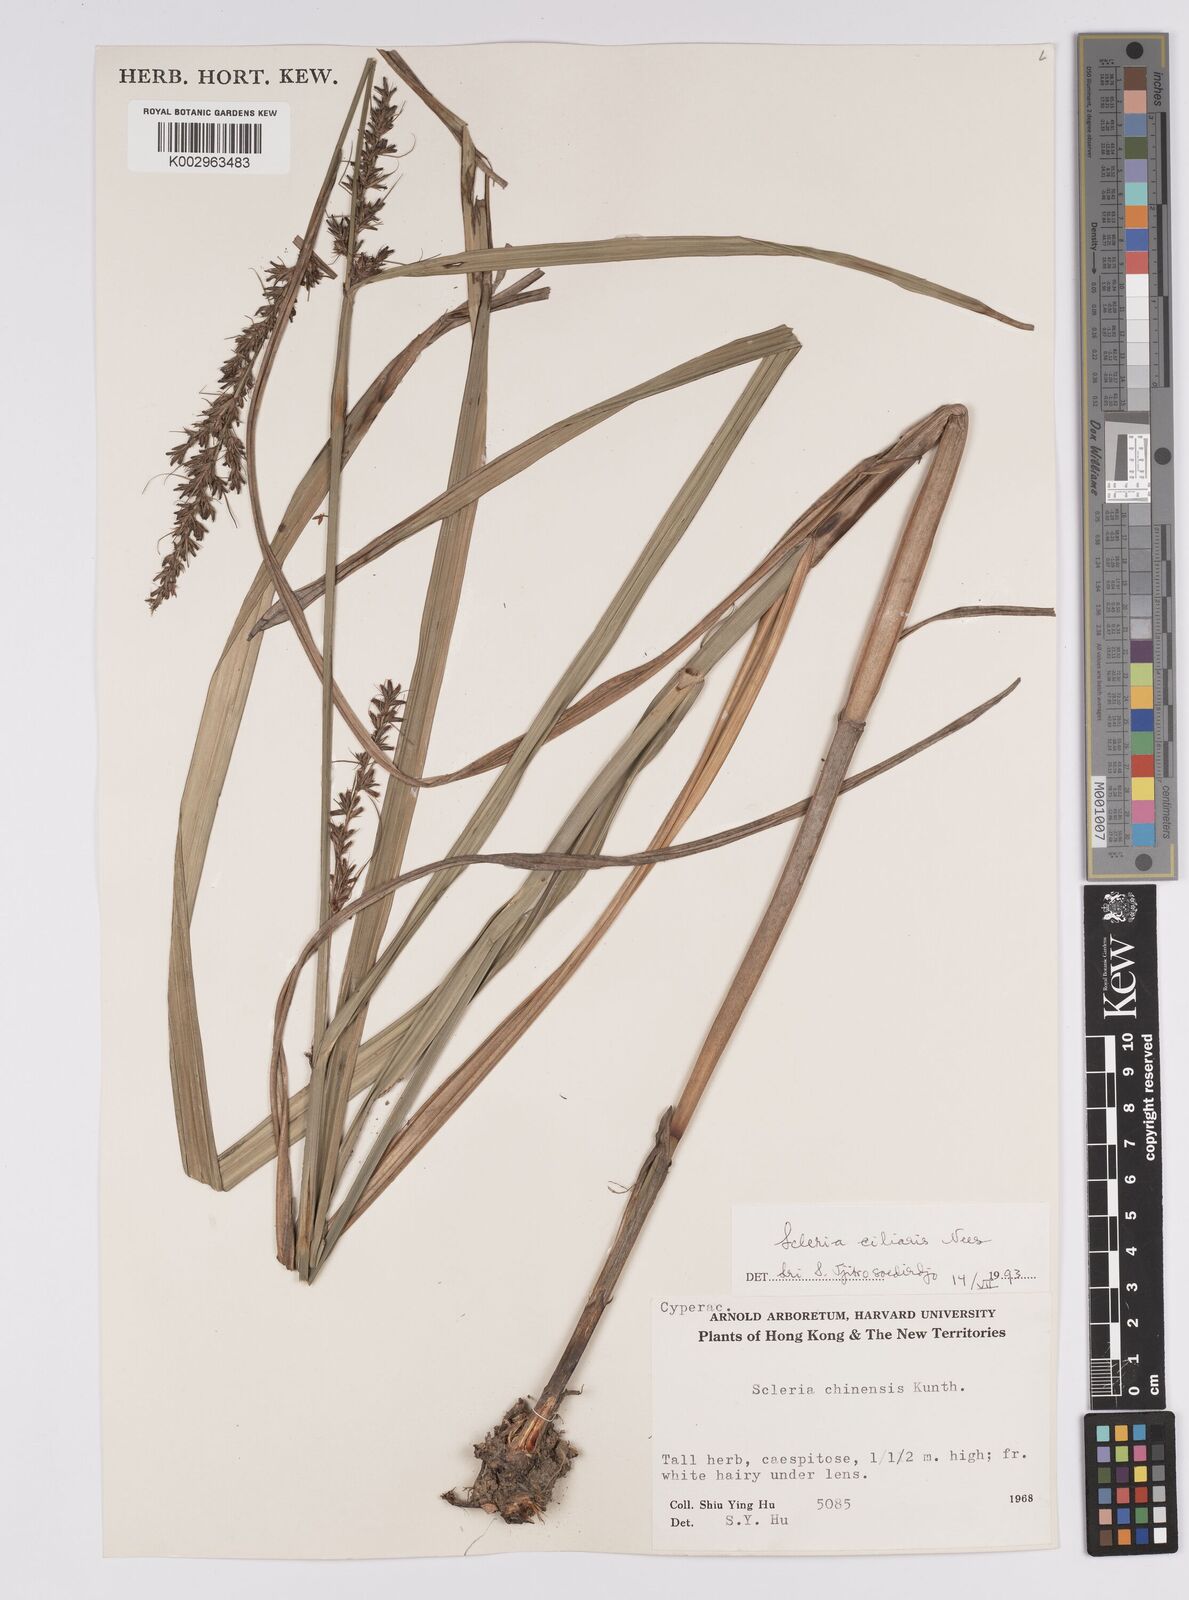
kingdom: Plantae
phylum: Tracheophyta
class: Liliopsida
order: Poales
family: Cyperaceae
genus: Scleria
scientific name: Scleria ciliaris
